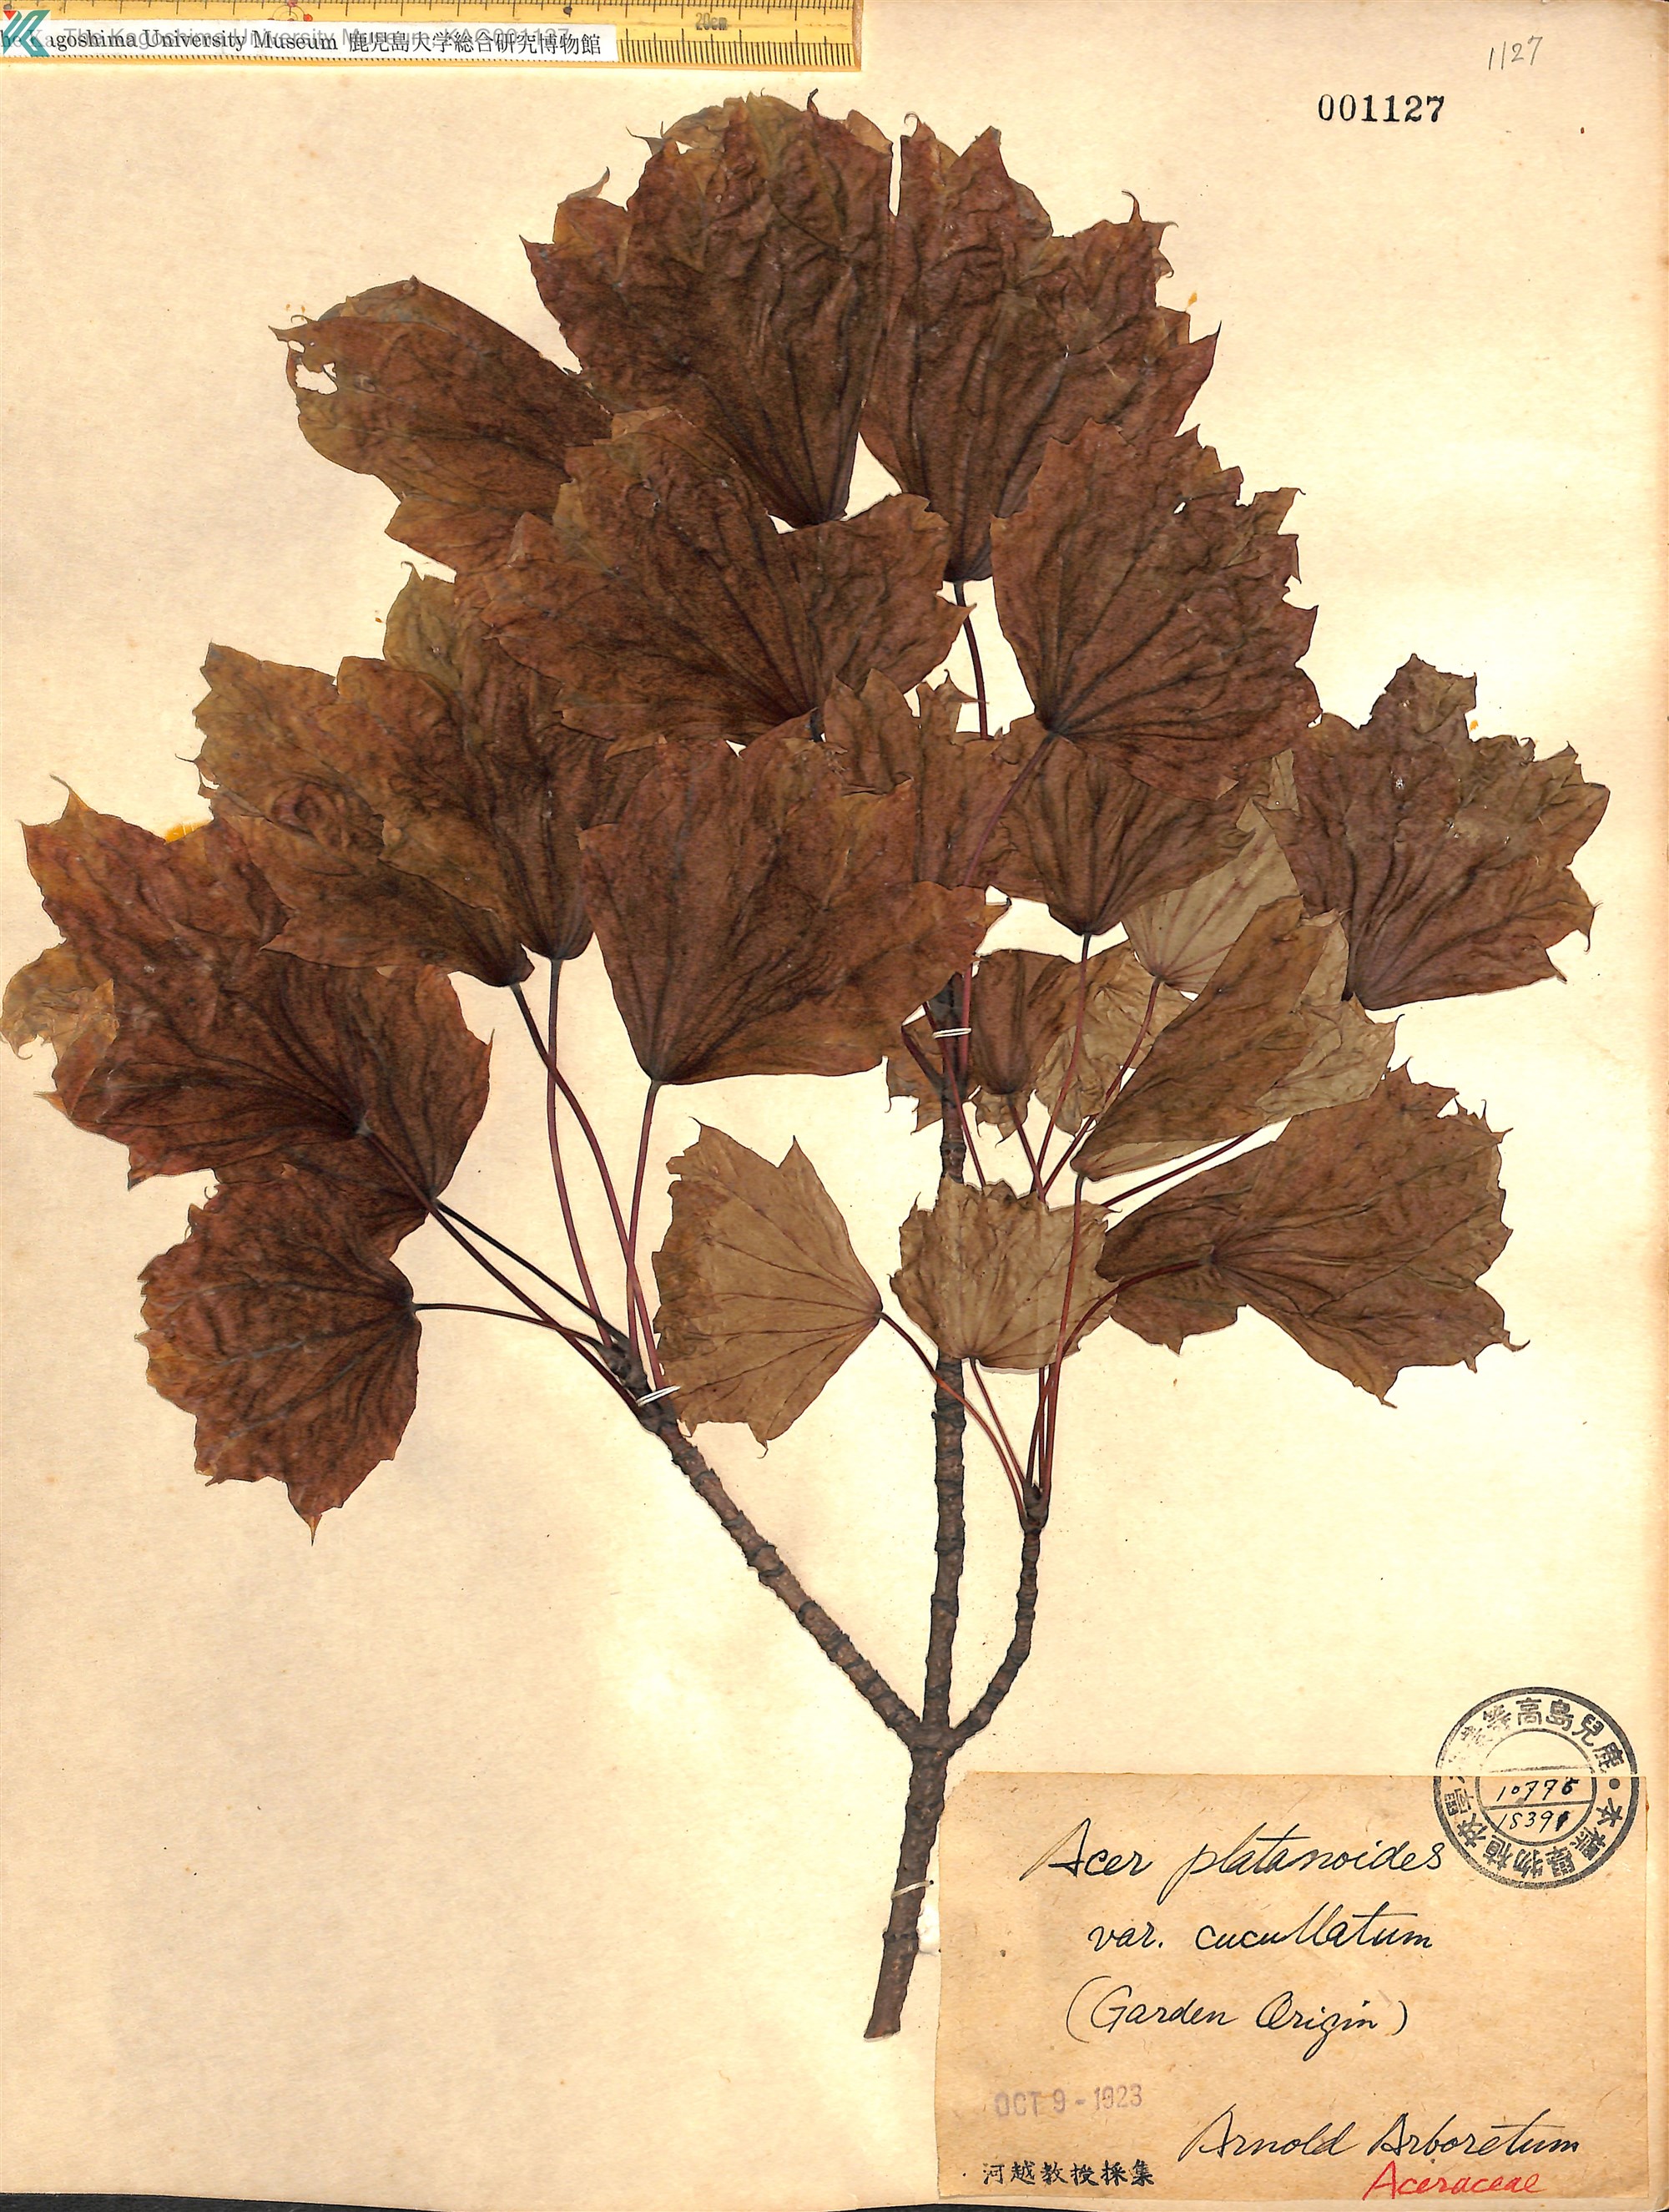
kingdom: Plantae
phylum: Tracheophyta
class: Magnoliopsida
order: Sapindales
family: Sapindaceae
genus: Acer
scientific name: Acer platanoides
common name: Norway maple
